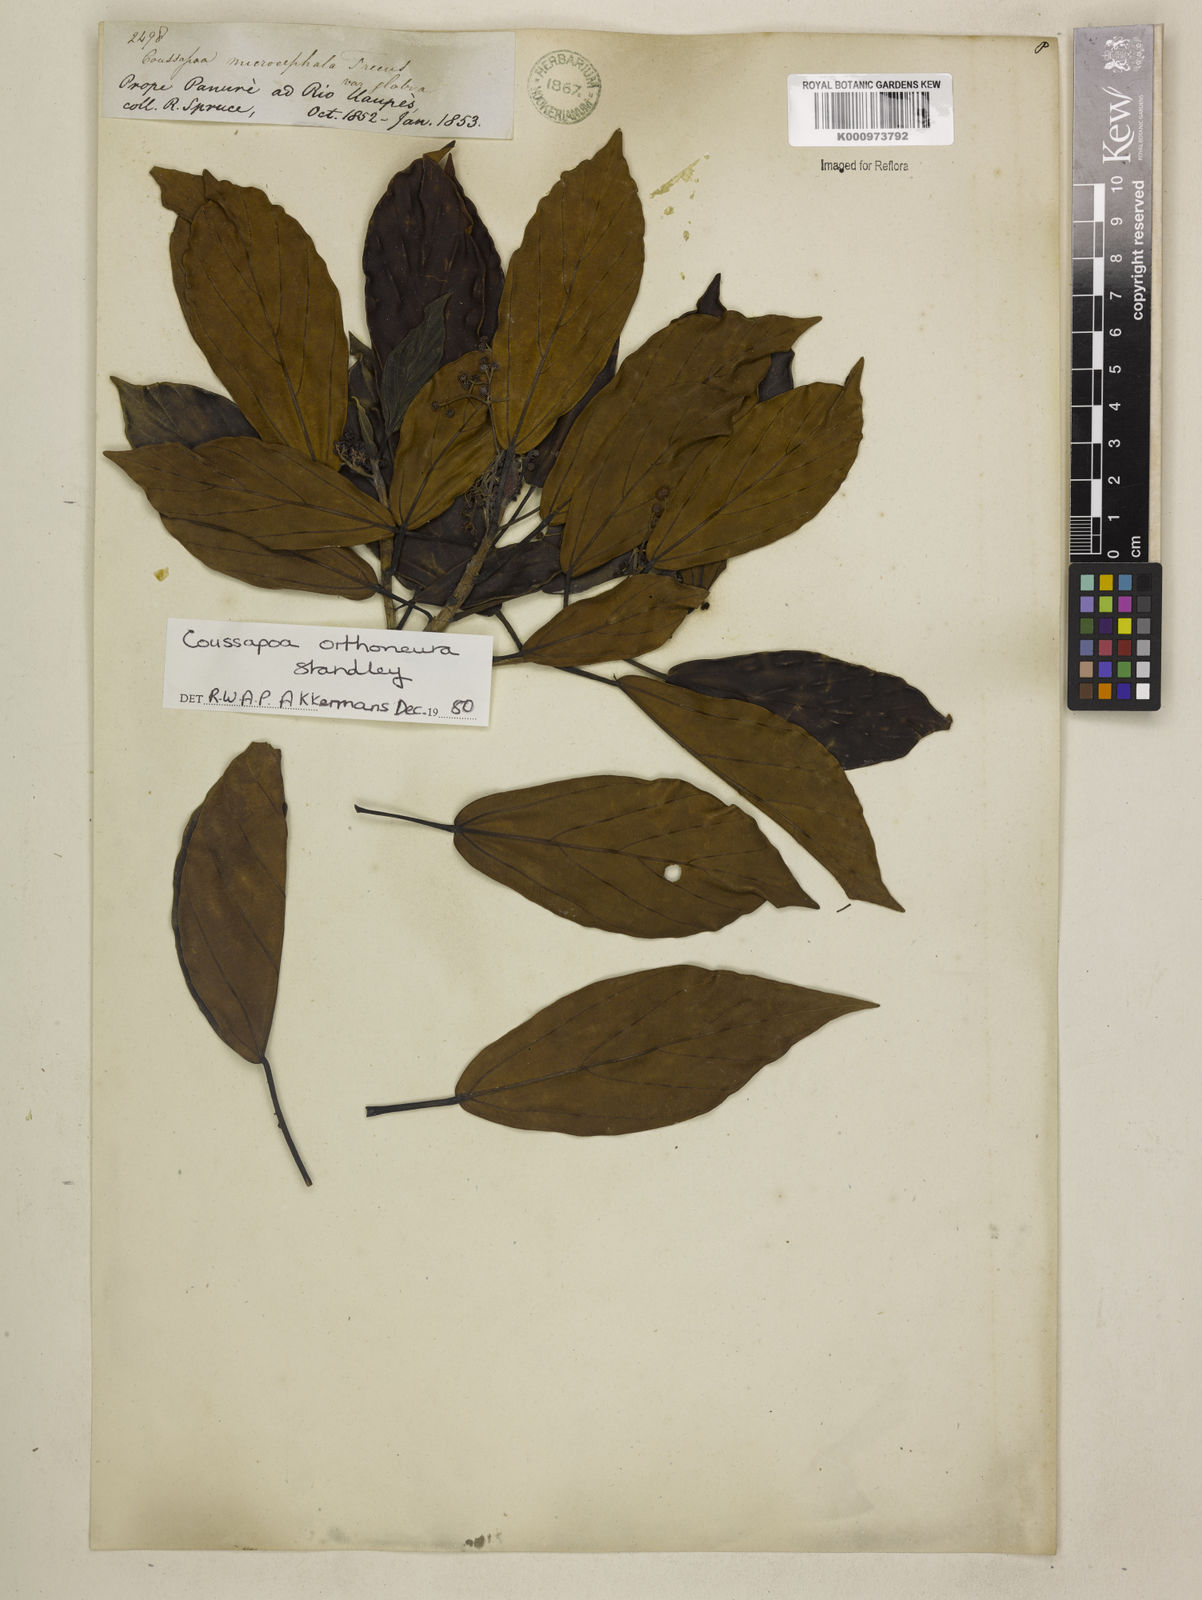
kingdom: Plantae
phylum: Tracheophyta
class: Magnoliopsida
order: Rosales
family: Urticaceae
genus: Coussapoa
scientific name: Coussapoa orthoneura
